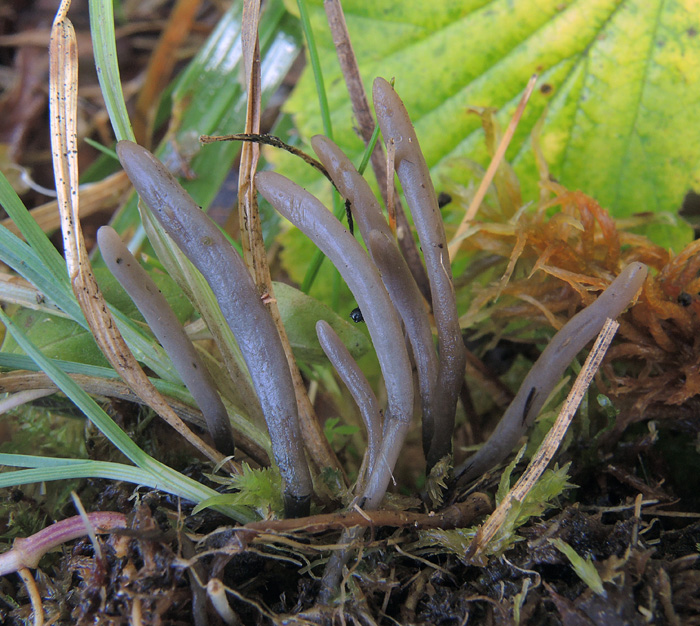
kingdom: Fungi
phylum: Basidiomycota
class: Agaricomycetes
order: Agaricales
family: Clavariaceae
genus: Clavaria
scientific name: Clavaria greletii
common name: sodgrå køllesvamp
